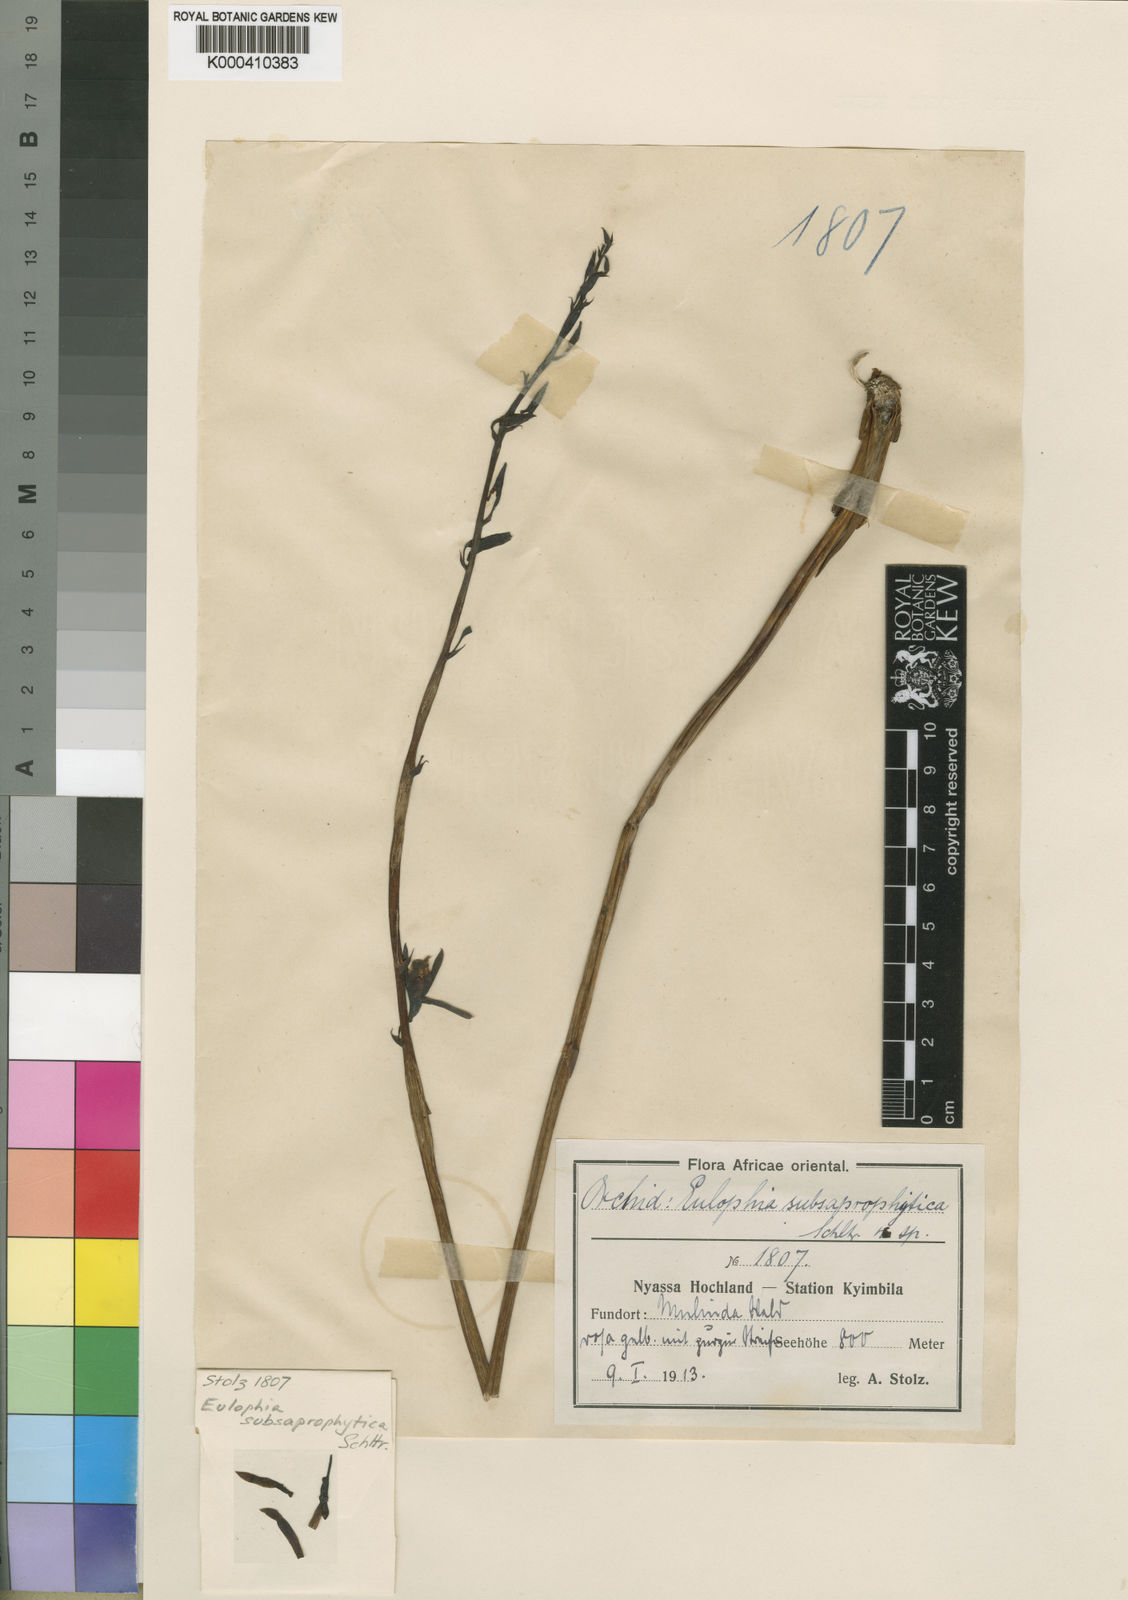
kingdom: Plantae
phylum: Tracheophyta
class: Liliopsida
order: Asparagales
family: Orchidaceae
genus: Eulophia
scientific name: Eulophia subsaprophytica
